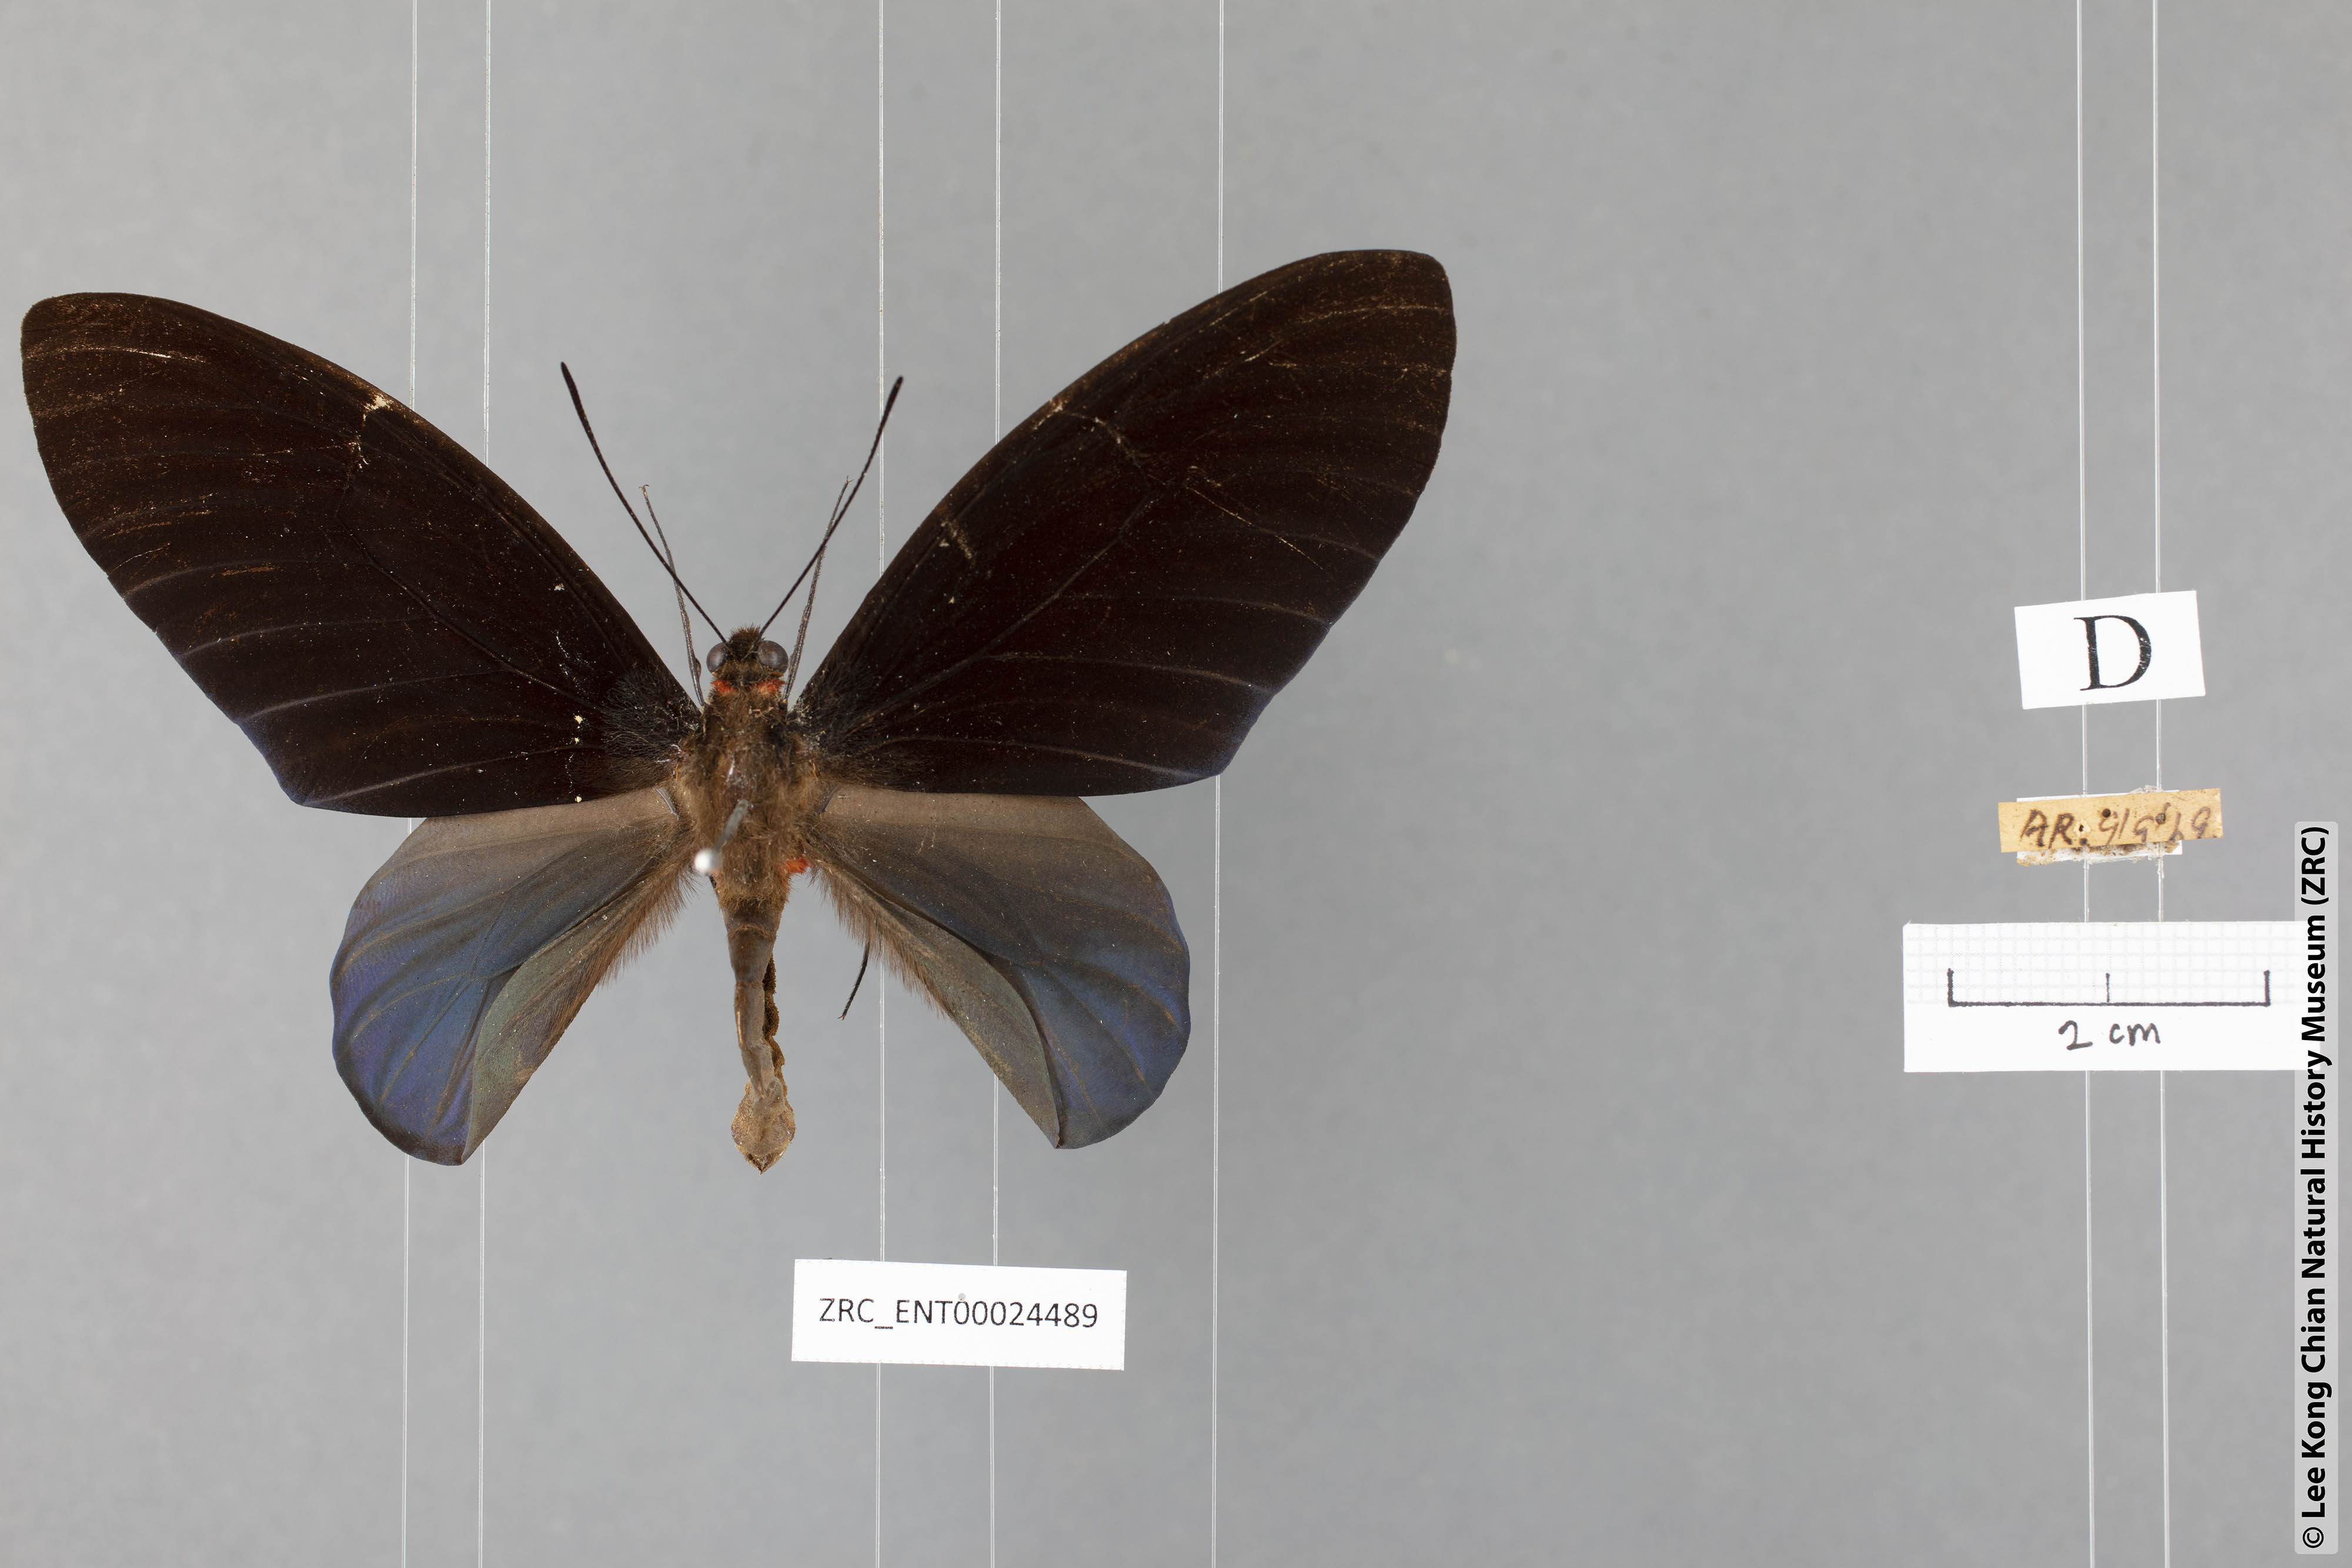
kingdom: Animalia
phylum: Arthropoda
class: Insecta
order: Lepidoptera
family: Papilionidae
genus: Atrophaneura
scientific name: Atrophaneura nox
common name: Malayan batwing
